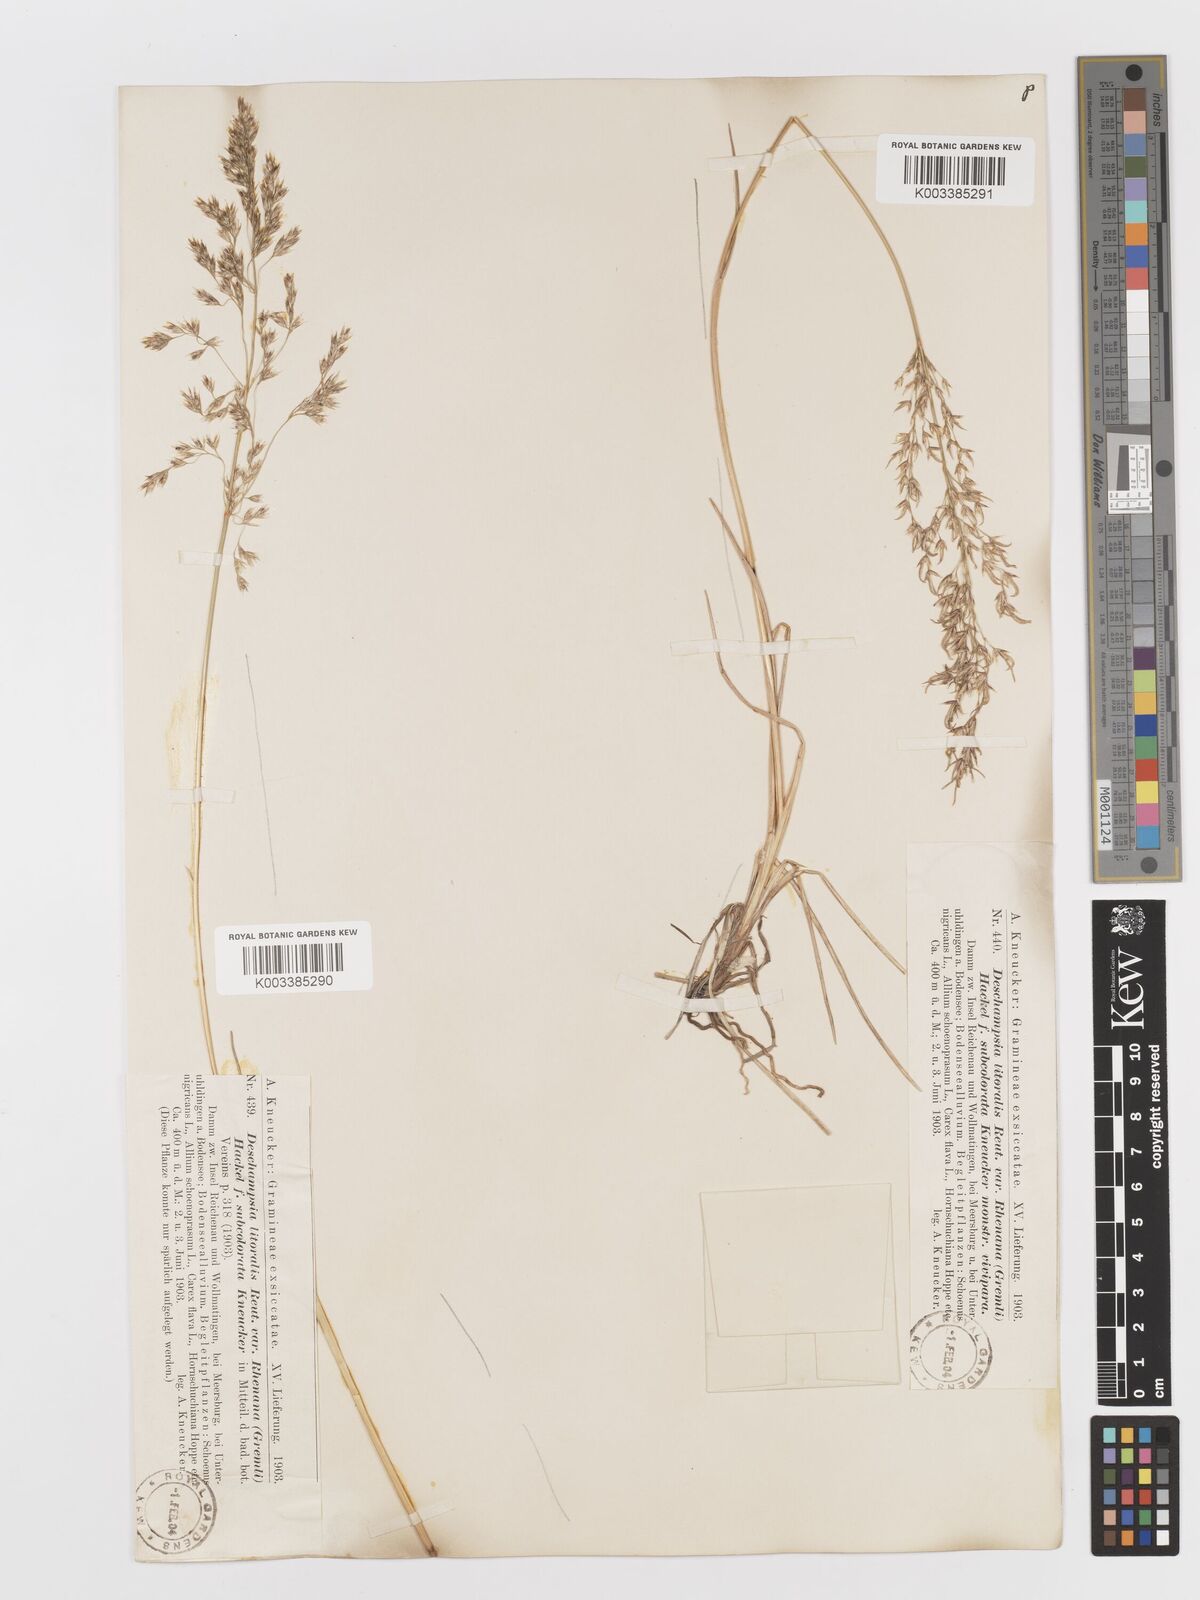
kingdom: Plantae
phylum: Tracheophyta
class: Liliopsida
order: Poales
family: Poaceae
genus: Deschampsia
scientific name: Deschampsia cespitosa
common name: Tufted hair-grass
